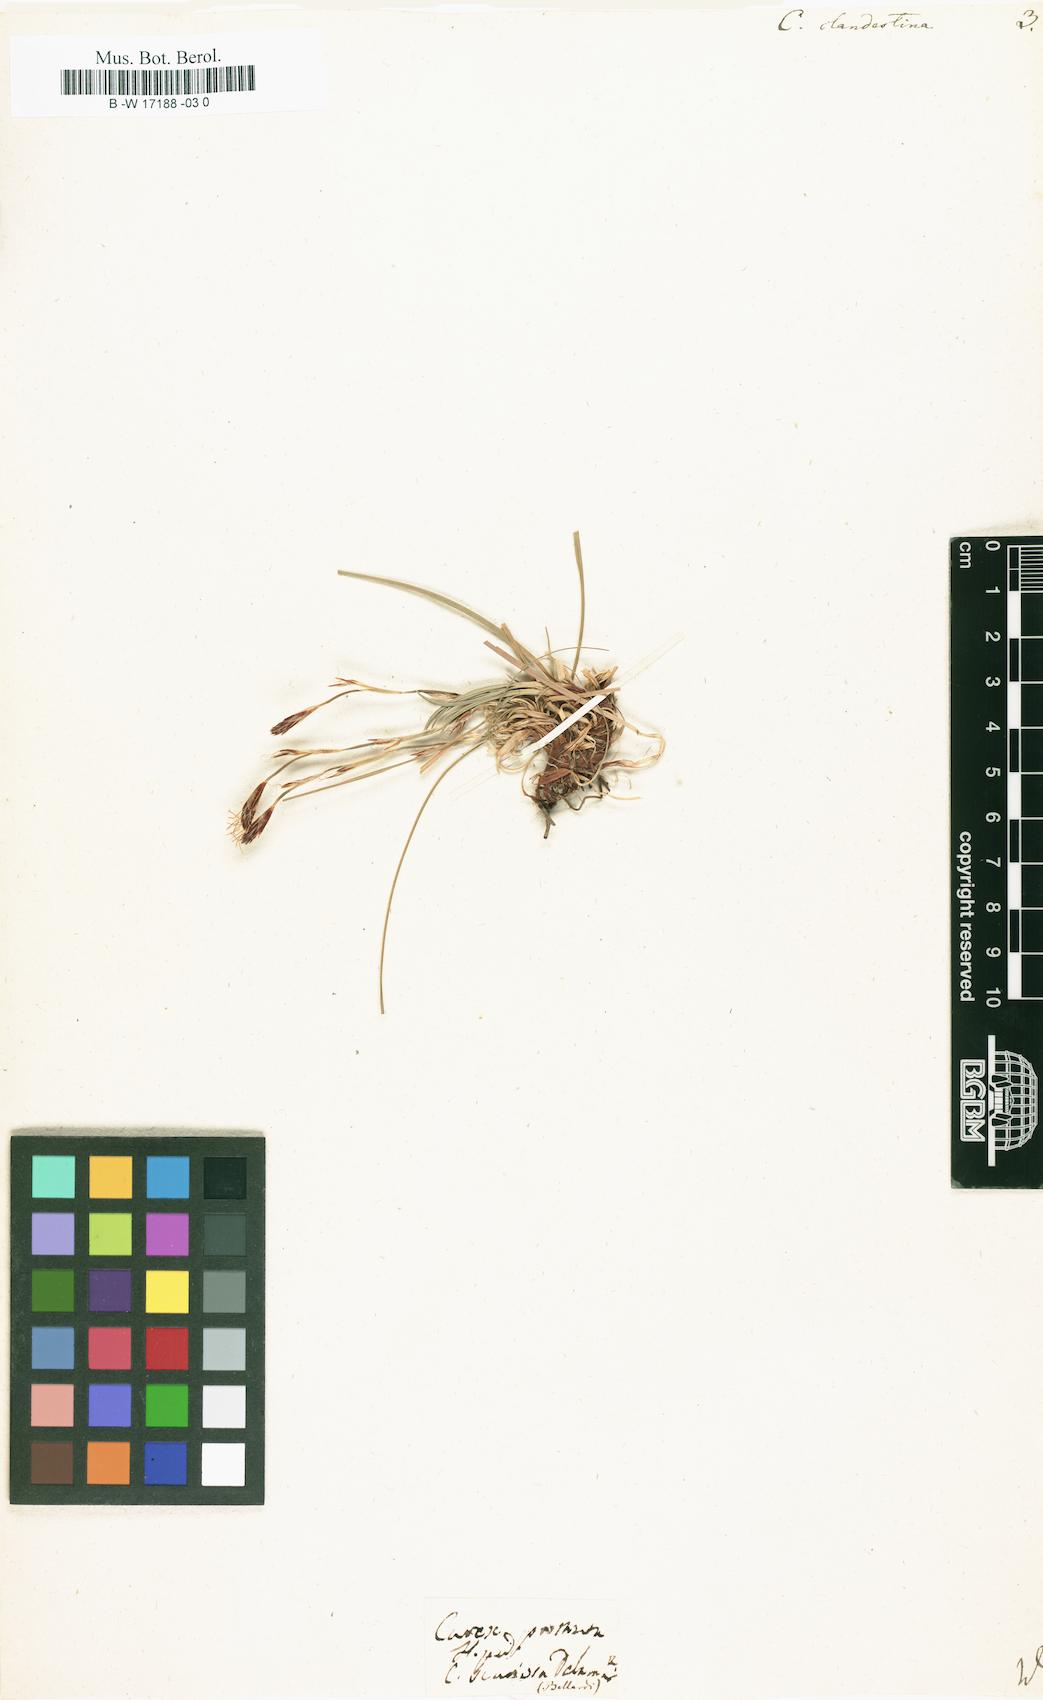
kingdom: Plantae
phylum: Tracheophyta
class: Liliopsida
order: Poales
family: Cyperaceae
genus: Carex
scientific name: Carex humilis
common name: Dwarf sedge
